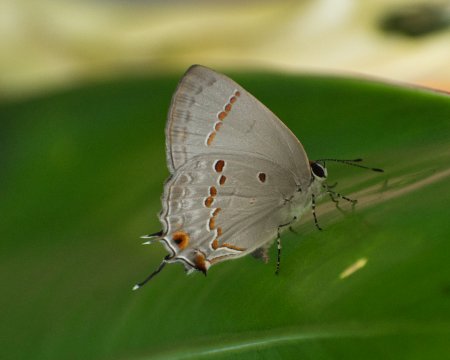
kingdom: Animalia
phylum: Arthropoda
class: Insecta
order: Lepidoptera
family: Lycaenidae
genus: Thecla
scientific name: Thecla ziba
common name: Ziba Scrub-Hairstreak
